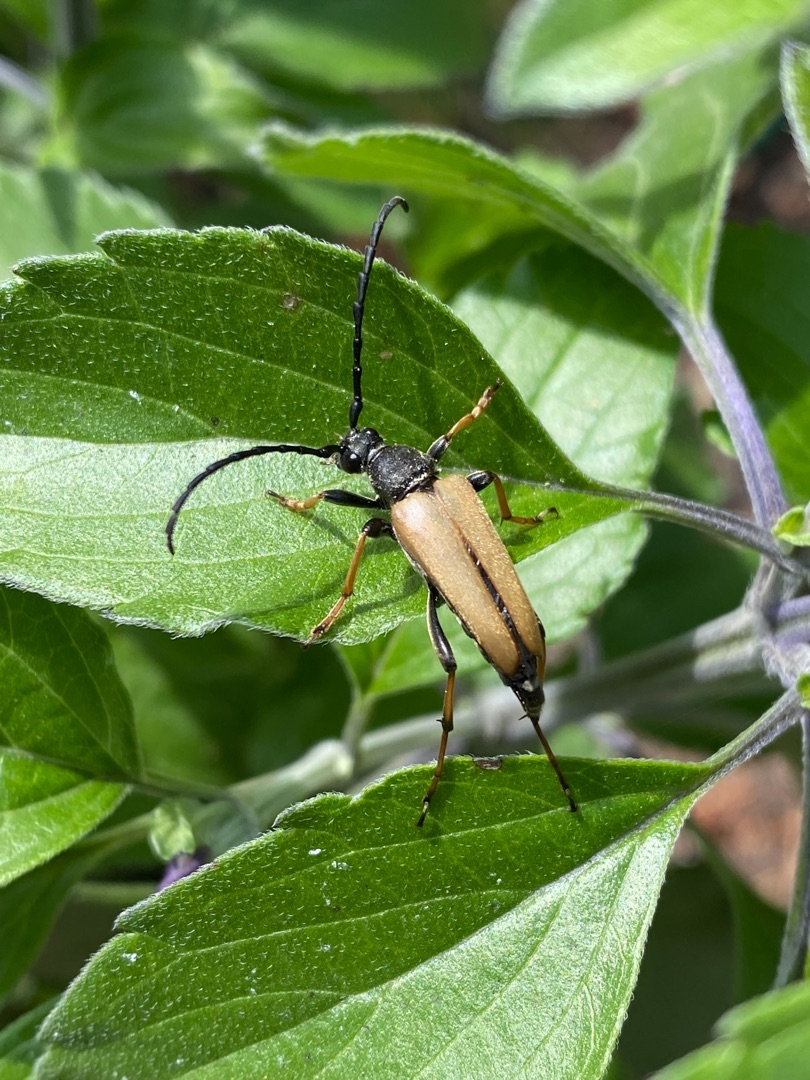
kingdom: Animalia
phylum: Arthropoda
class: Insecta
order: Coleoptera
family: Cerambycidae
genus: Stictoleptura
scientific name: Stictoleptura rubra
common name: Rød blomsterbuk
